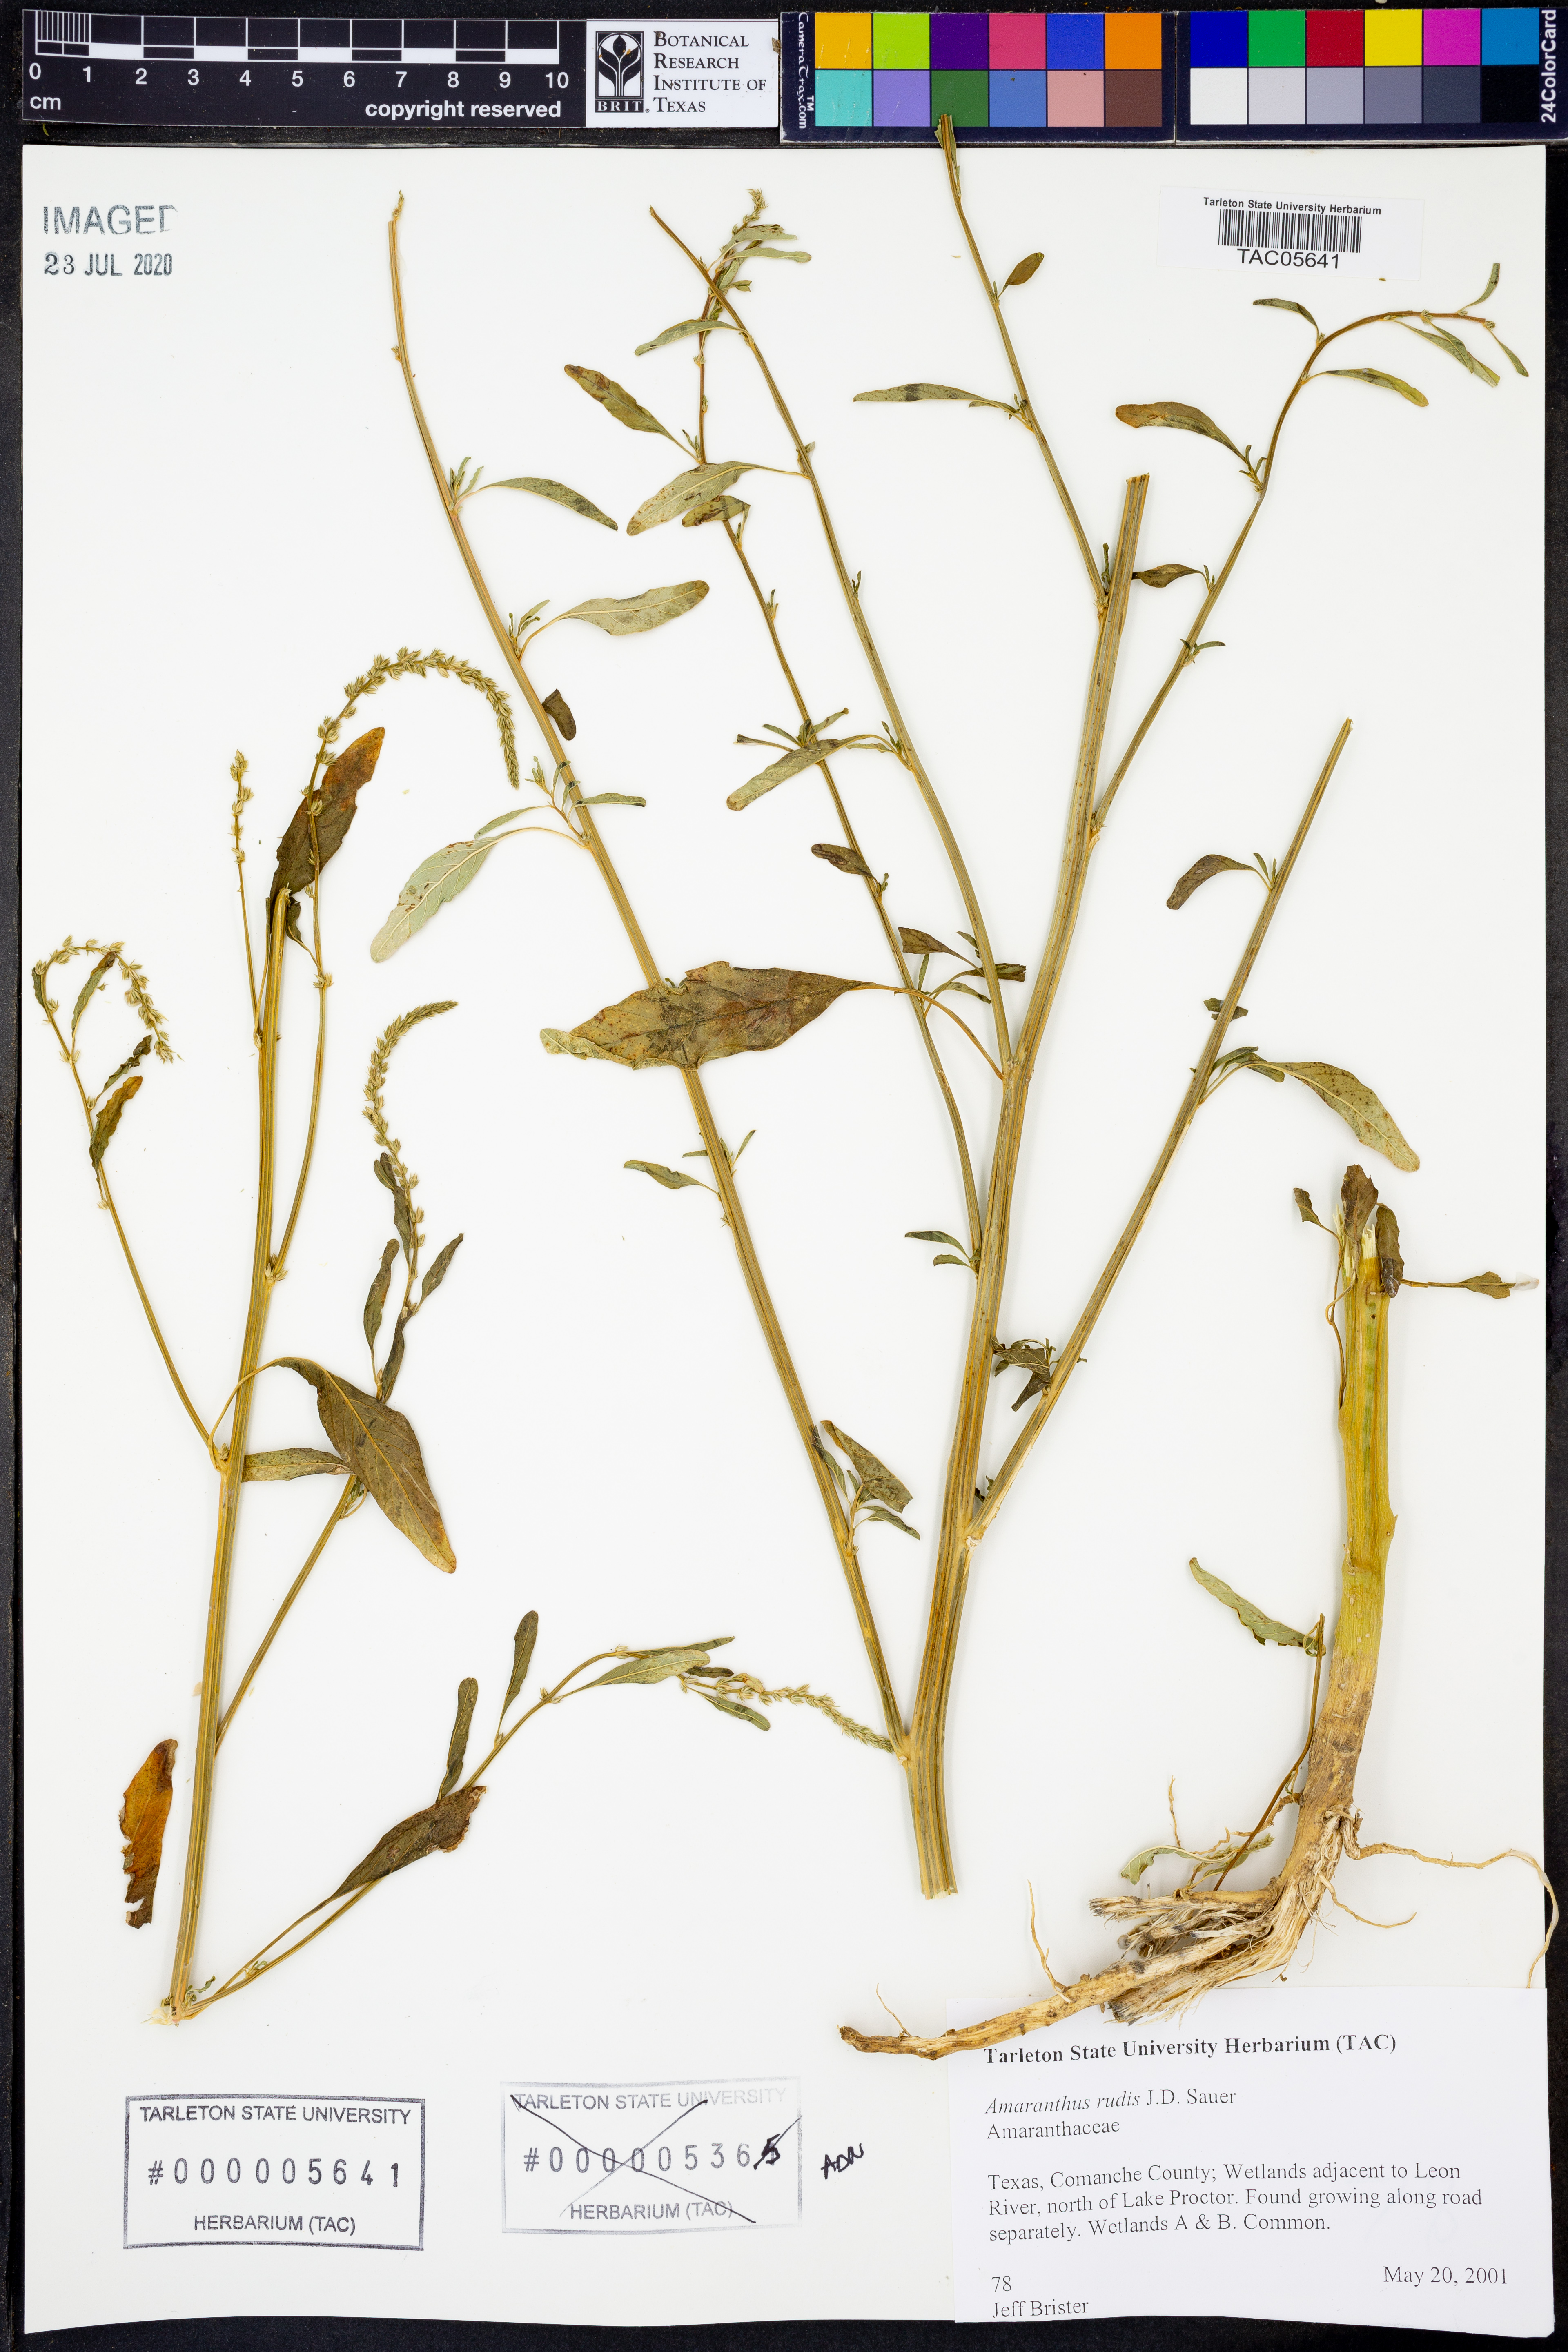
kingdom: Plantae
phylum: Tracheophyta
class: Magnoliopsida
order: Caryophyllales
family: Amaranthaceae
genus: Amaranthus
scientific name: Amaranthus tuberculatus
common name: Rough-fruit amaranth
